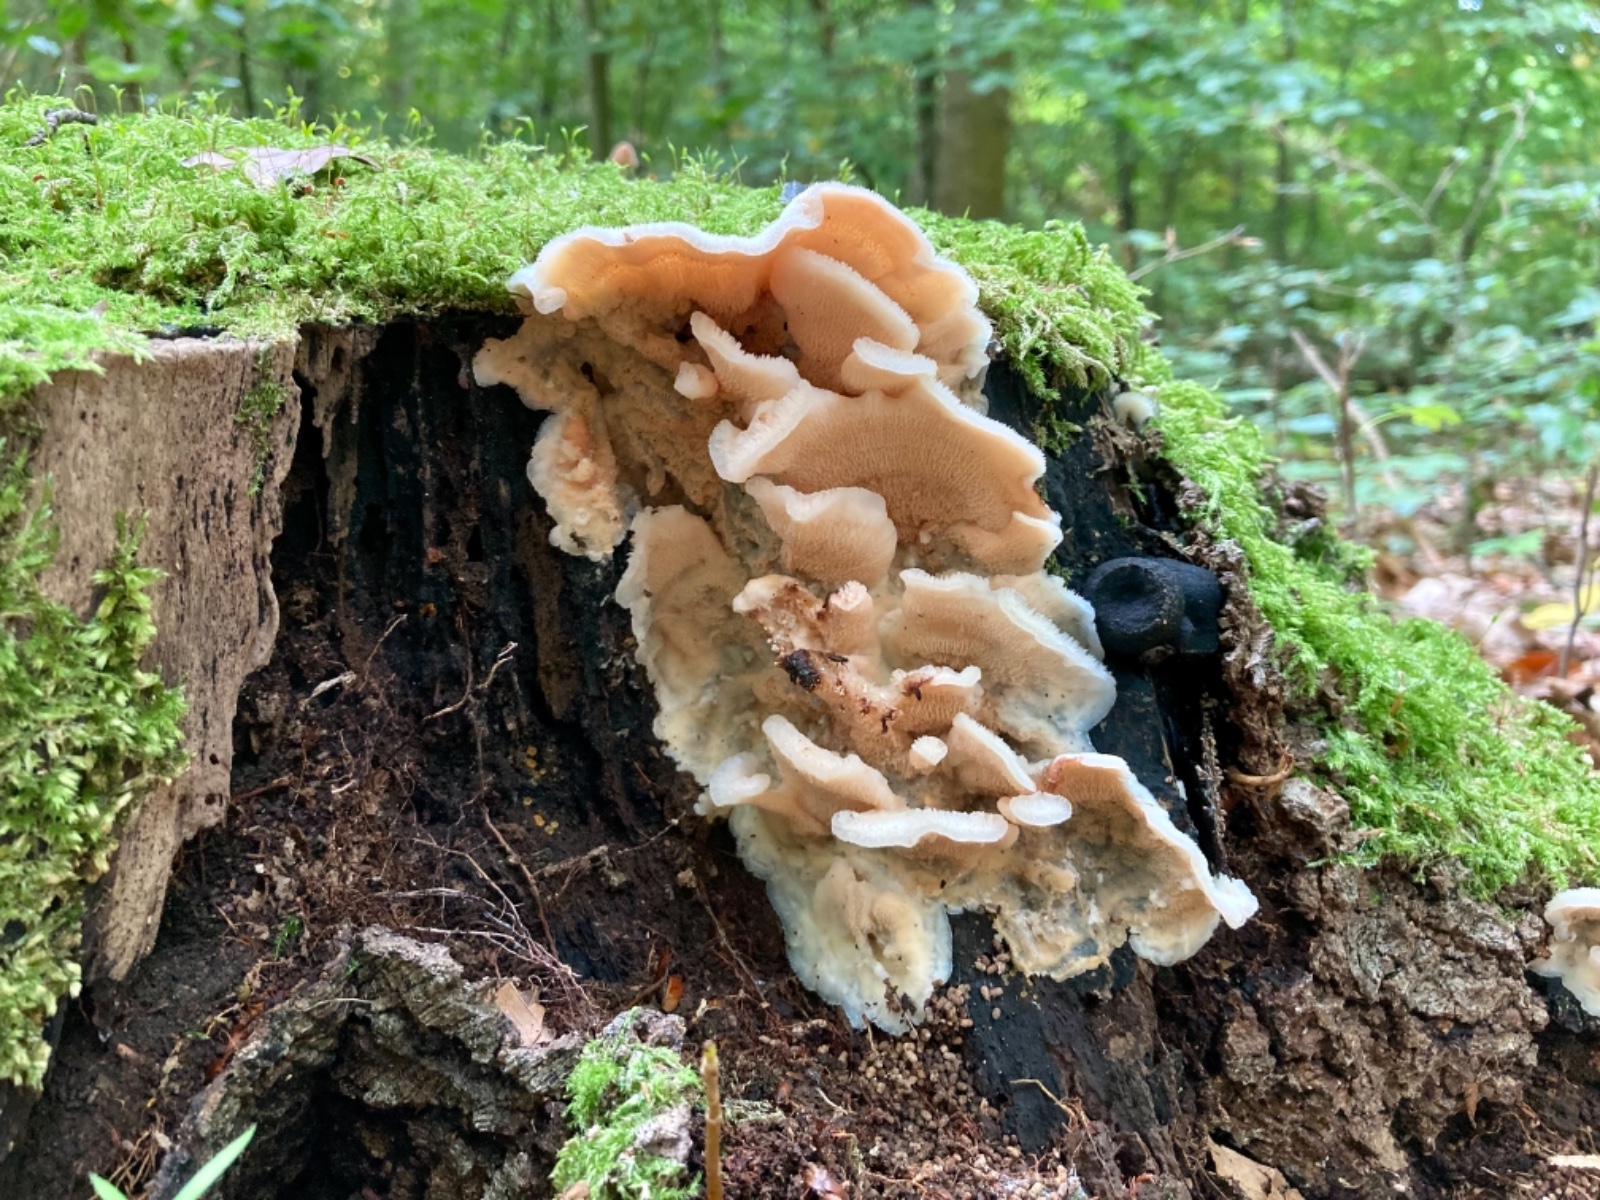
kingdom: Fungi
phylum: Basidiomycota
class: Agaricomycetes
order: Polyporales
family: Meruliaceae
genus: Phlebia
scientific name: Phlebia tremellosa
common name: bævrende åresvamp
